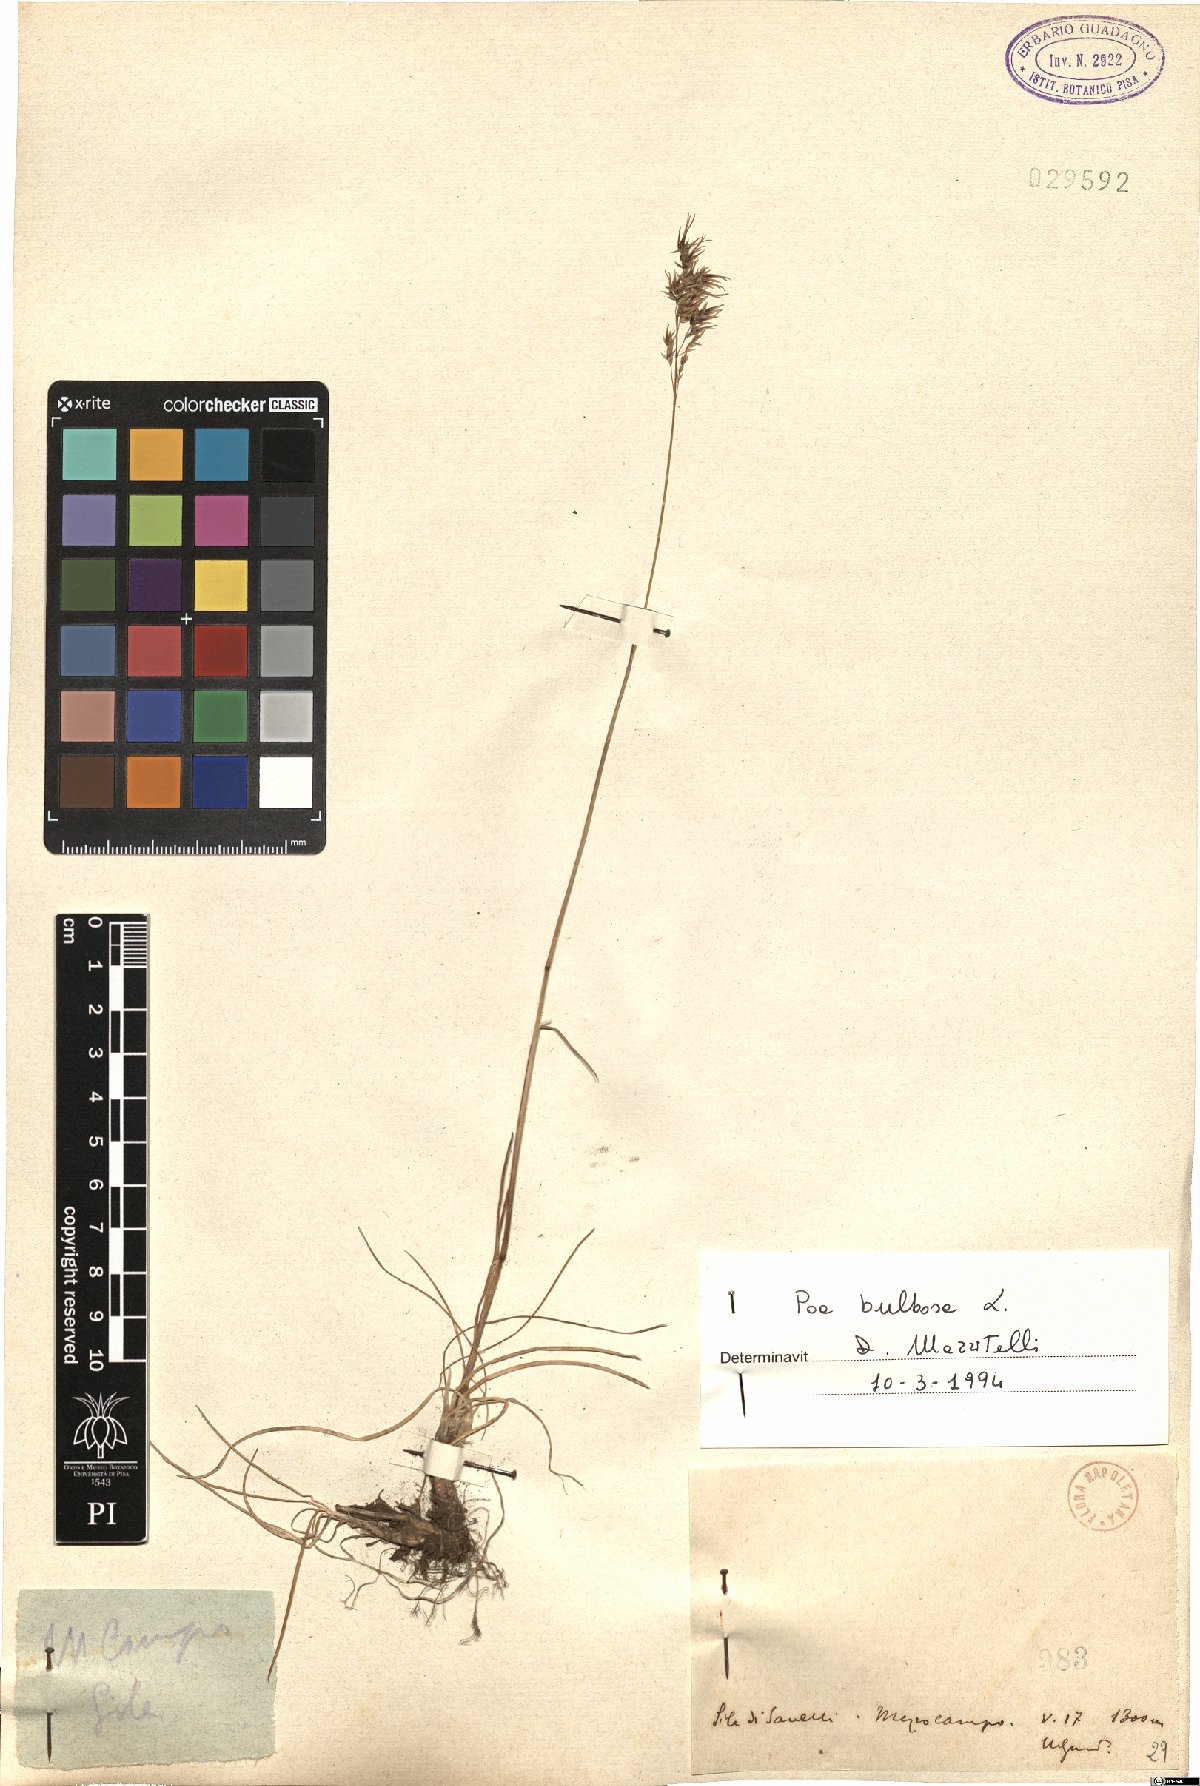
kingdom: Plantae
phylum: Tracheophyta
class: Liliopsida
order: Poales
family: Poaceae
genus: Poa
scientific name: Poa bulbosa
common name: Bulbous bluegrass
